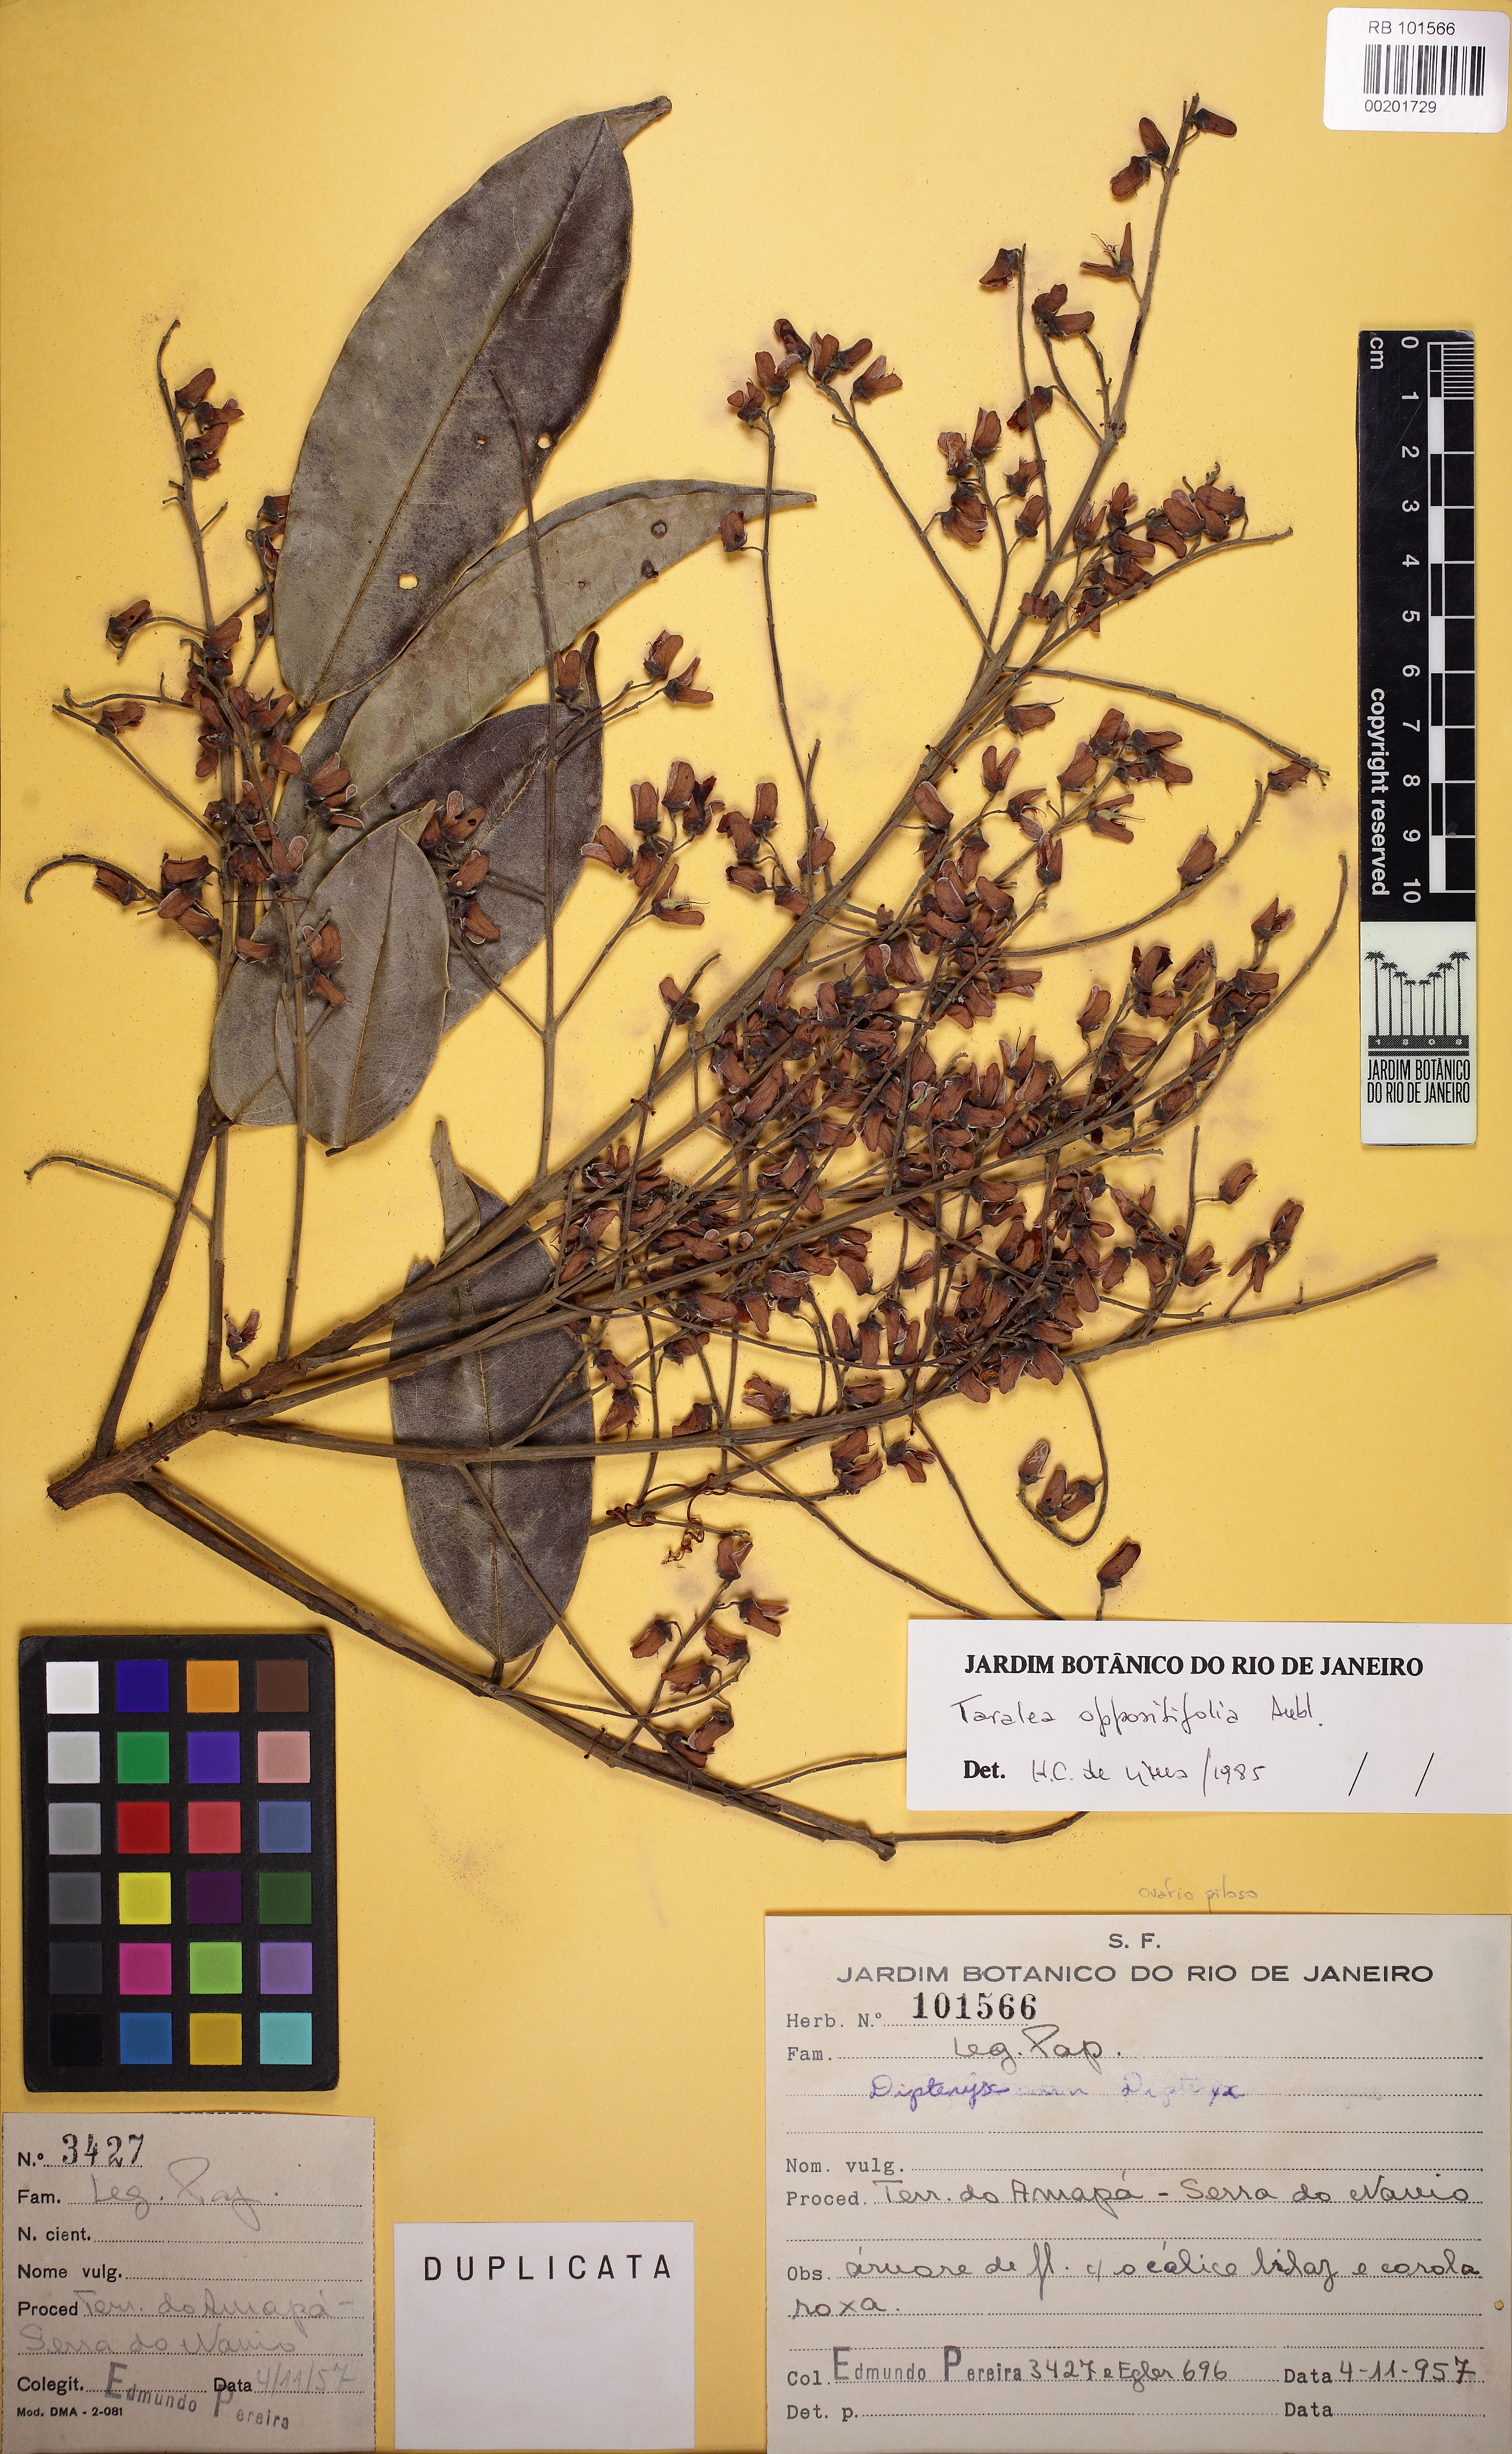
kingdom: Plantae
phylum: Tracheophyta
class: Magnoliopsida
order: Fabales
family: Fabaceae
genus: Taralea
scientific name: Taralea oppositifolia
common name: Tonka
